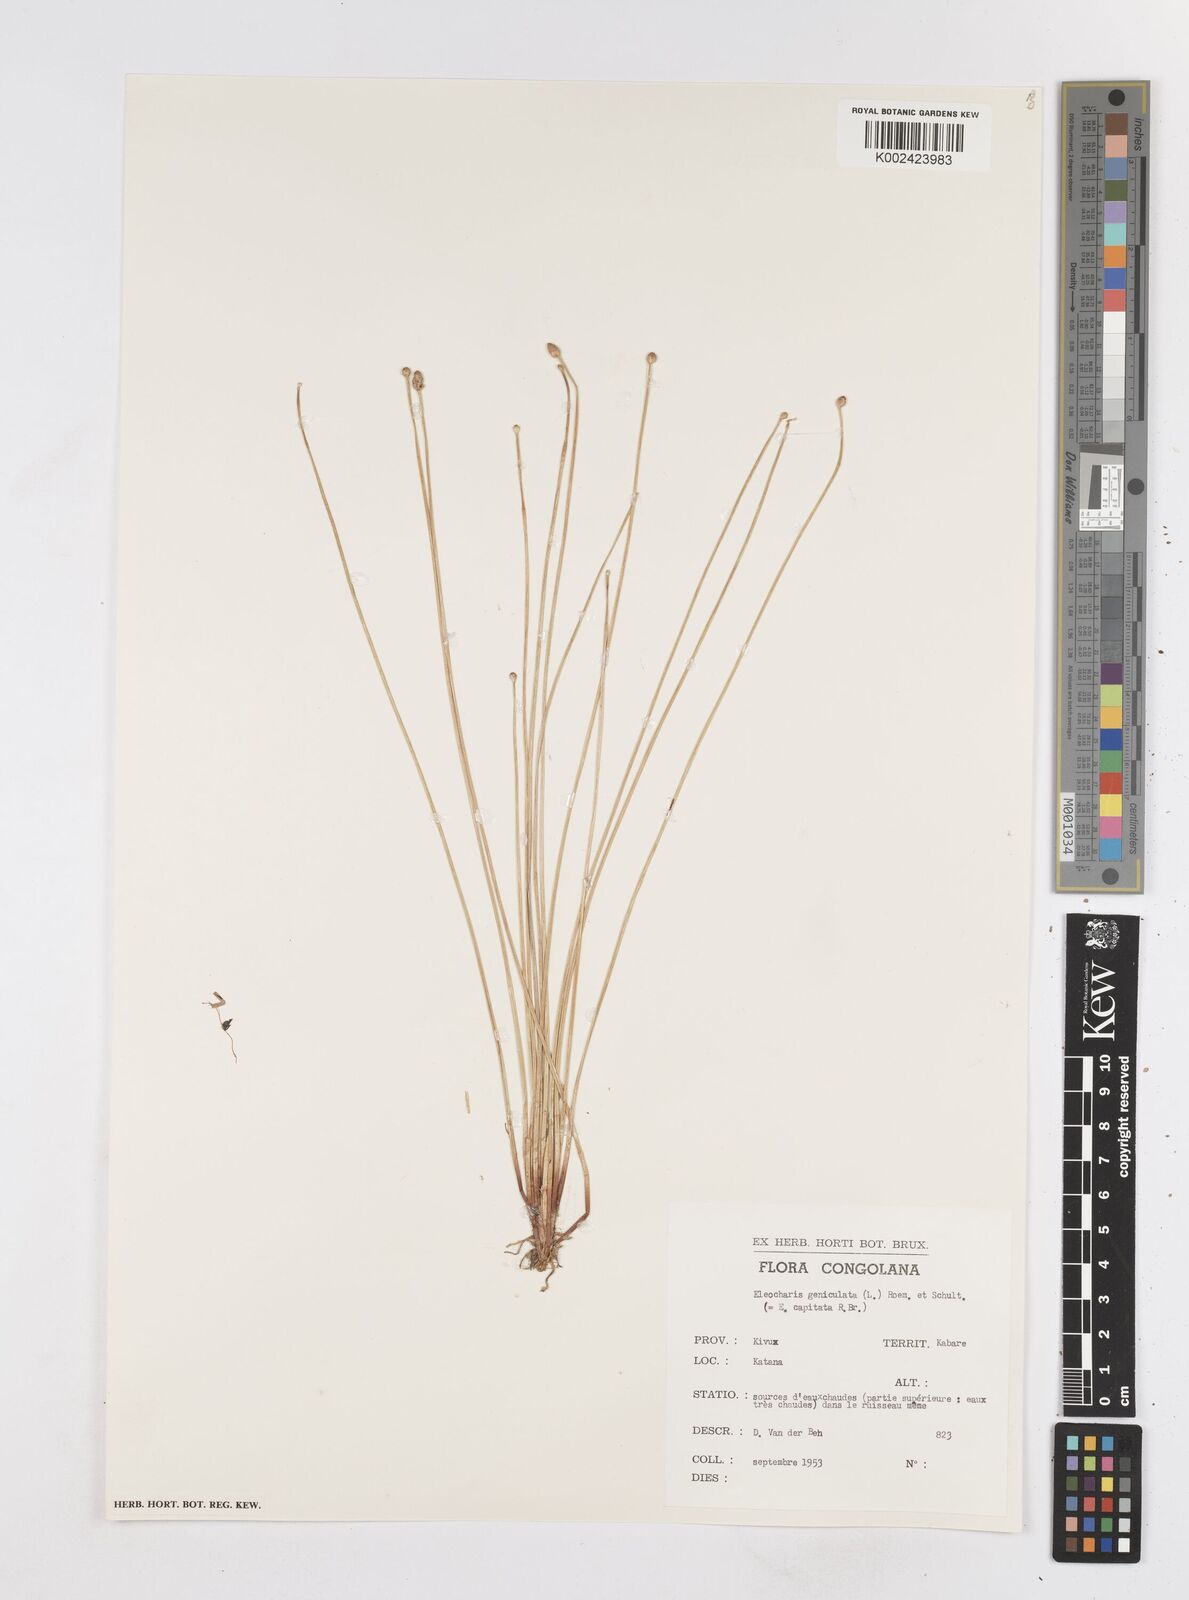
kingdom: Plantae
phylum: Tracheophyta
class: Liliopsida
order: Poales
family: Cyperaceae
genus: Eleocharis
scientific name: Eleocharis geniculata
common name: Canada spikesedge
